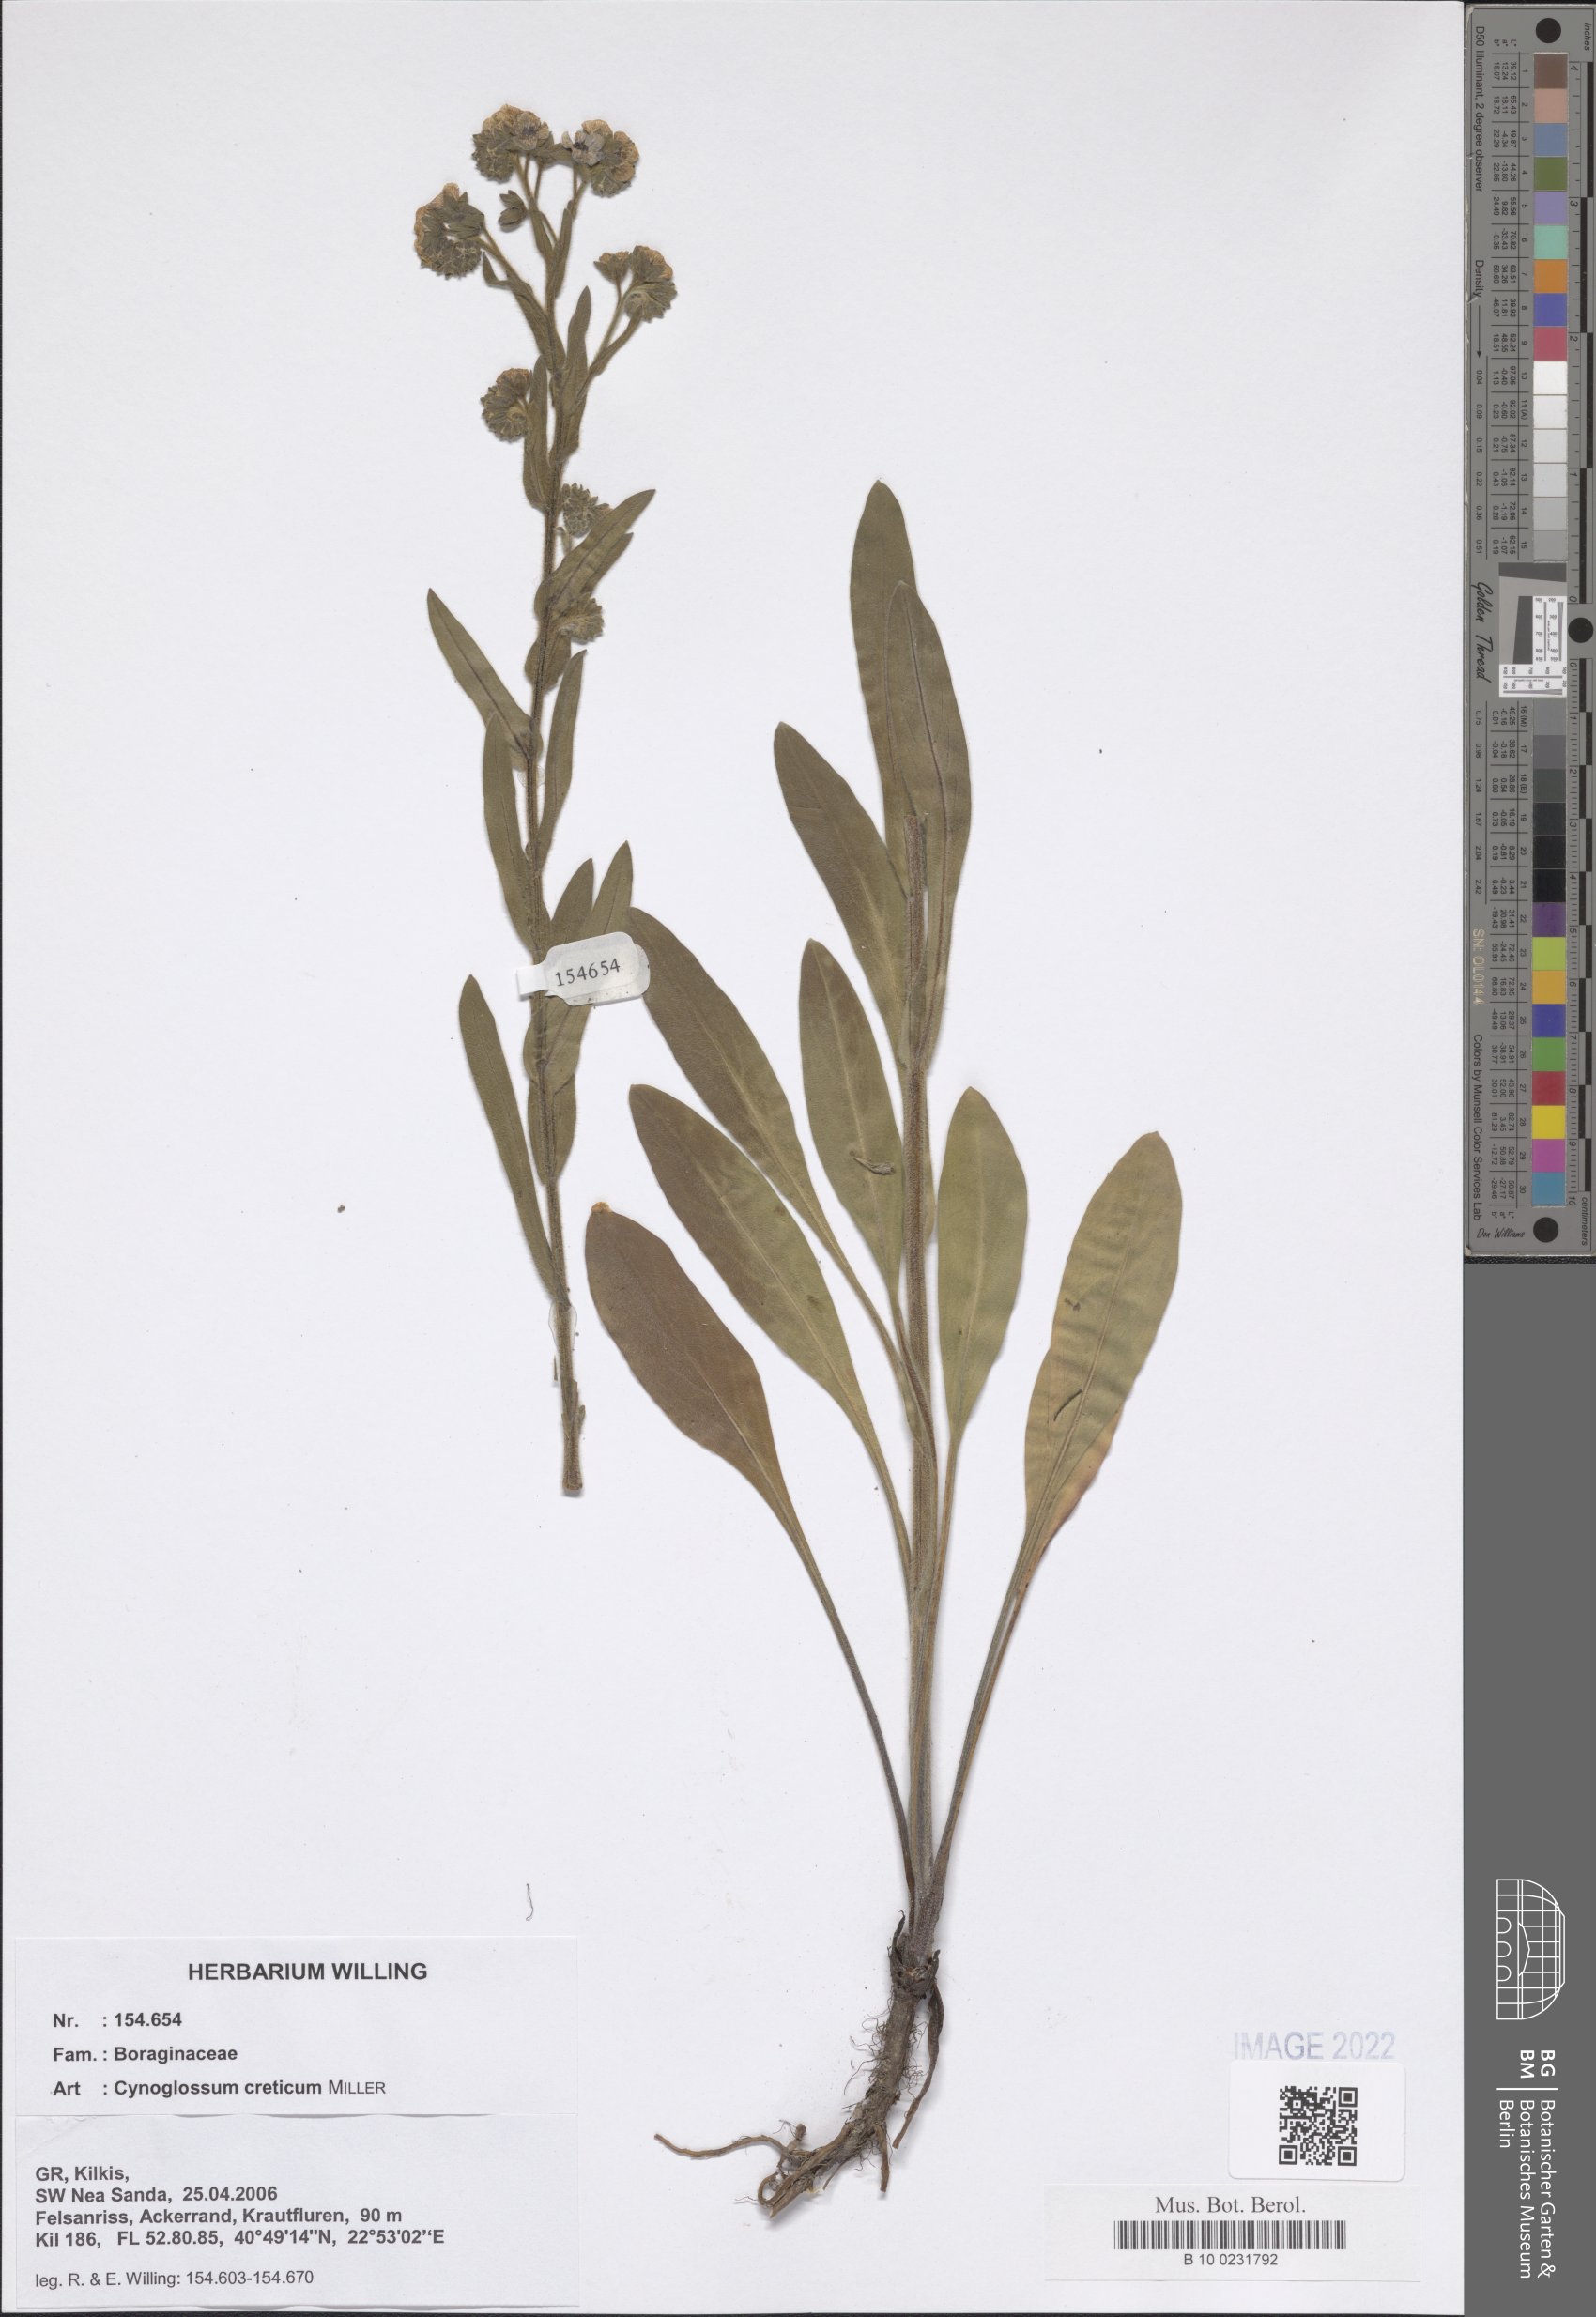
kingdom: Plantae
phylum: Tracheophyta
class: Magnoliopsida
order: Boraginales
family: Boraginaceae
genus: Cynoglossum
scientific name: Cynoglossum creticum
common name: Blue hound's tongue
